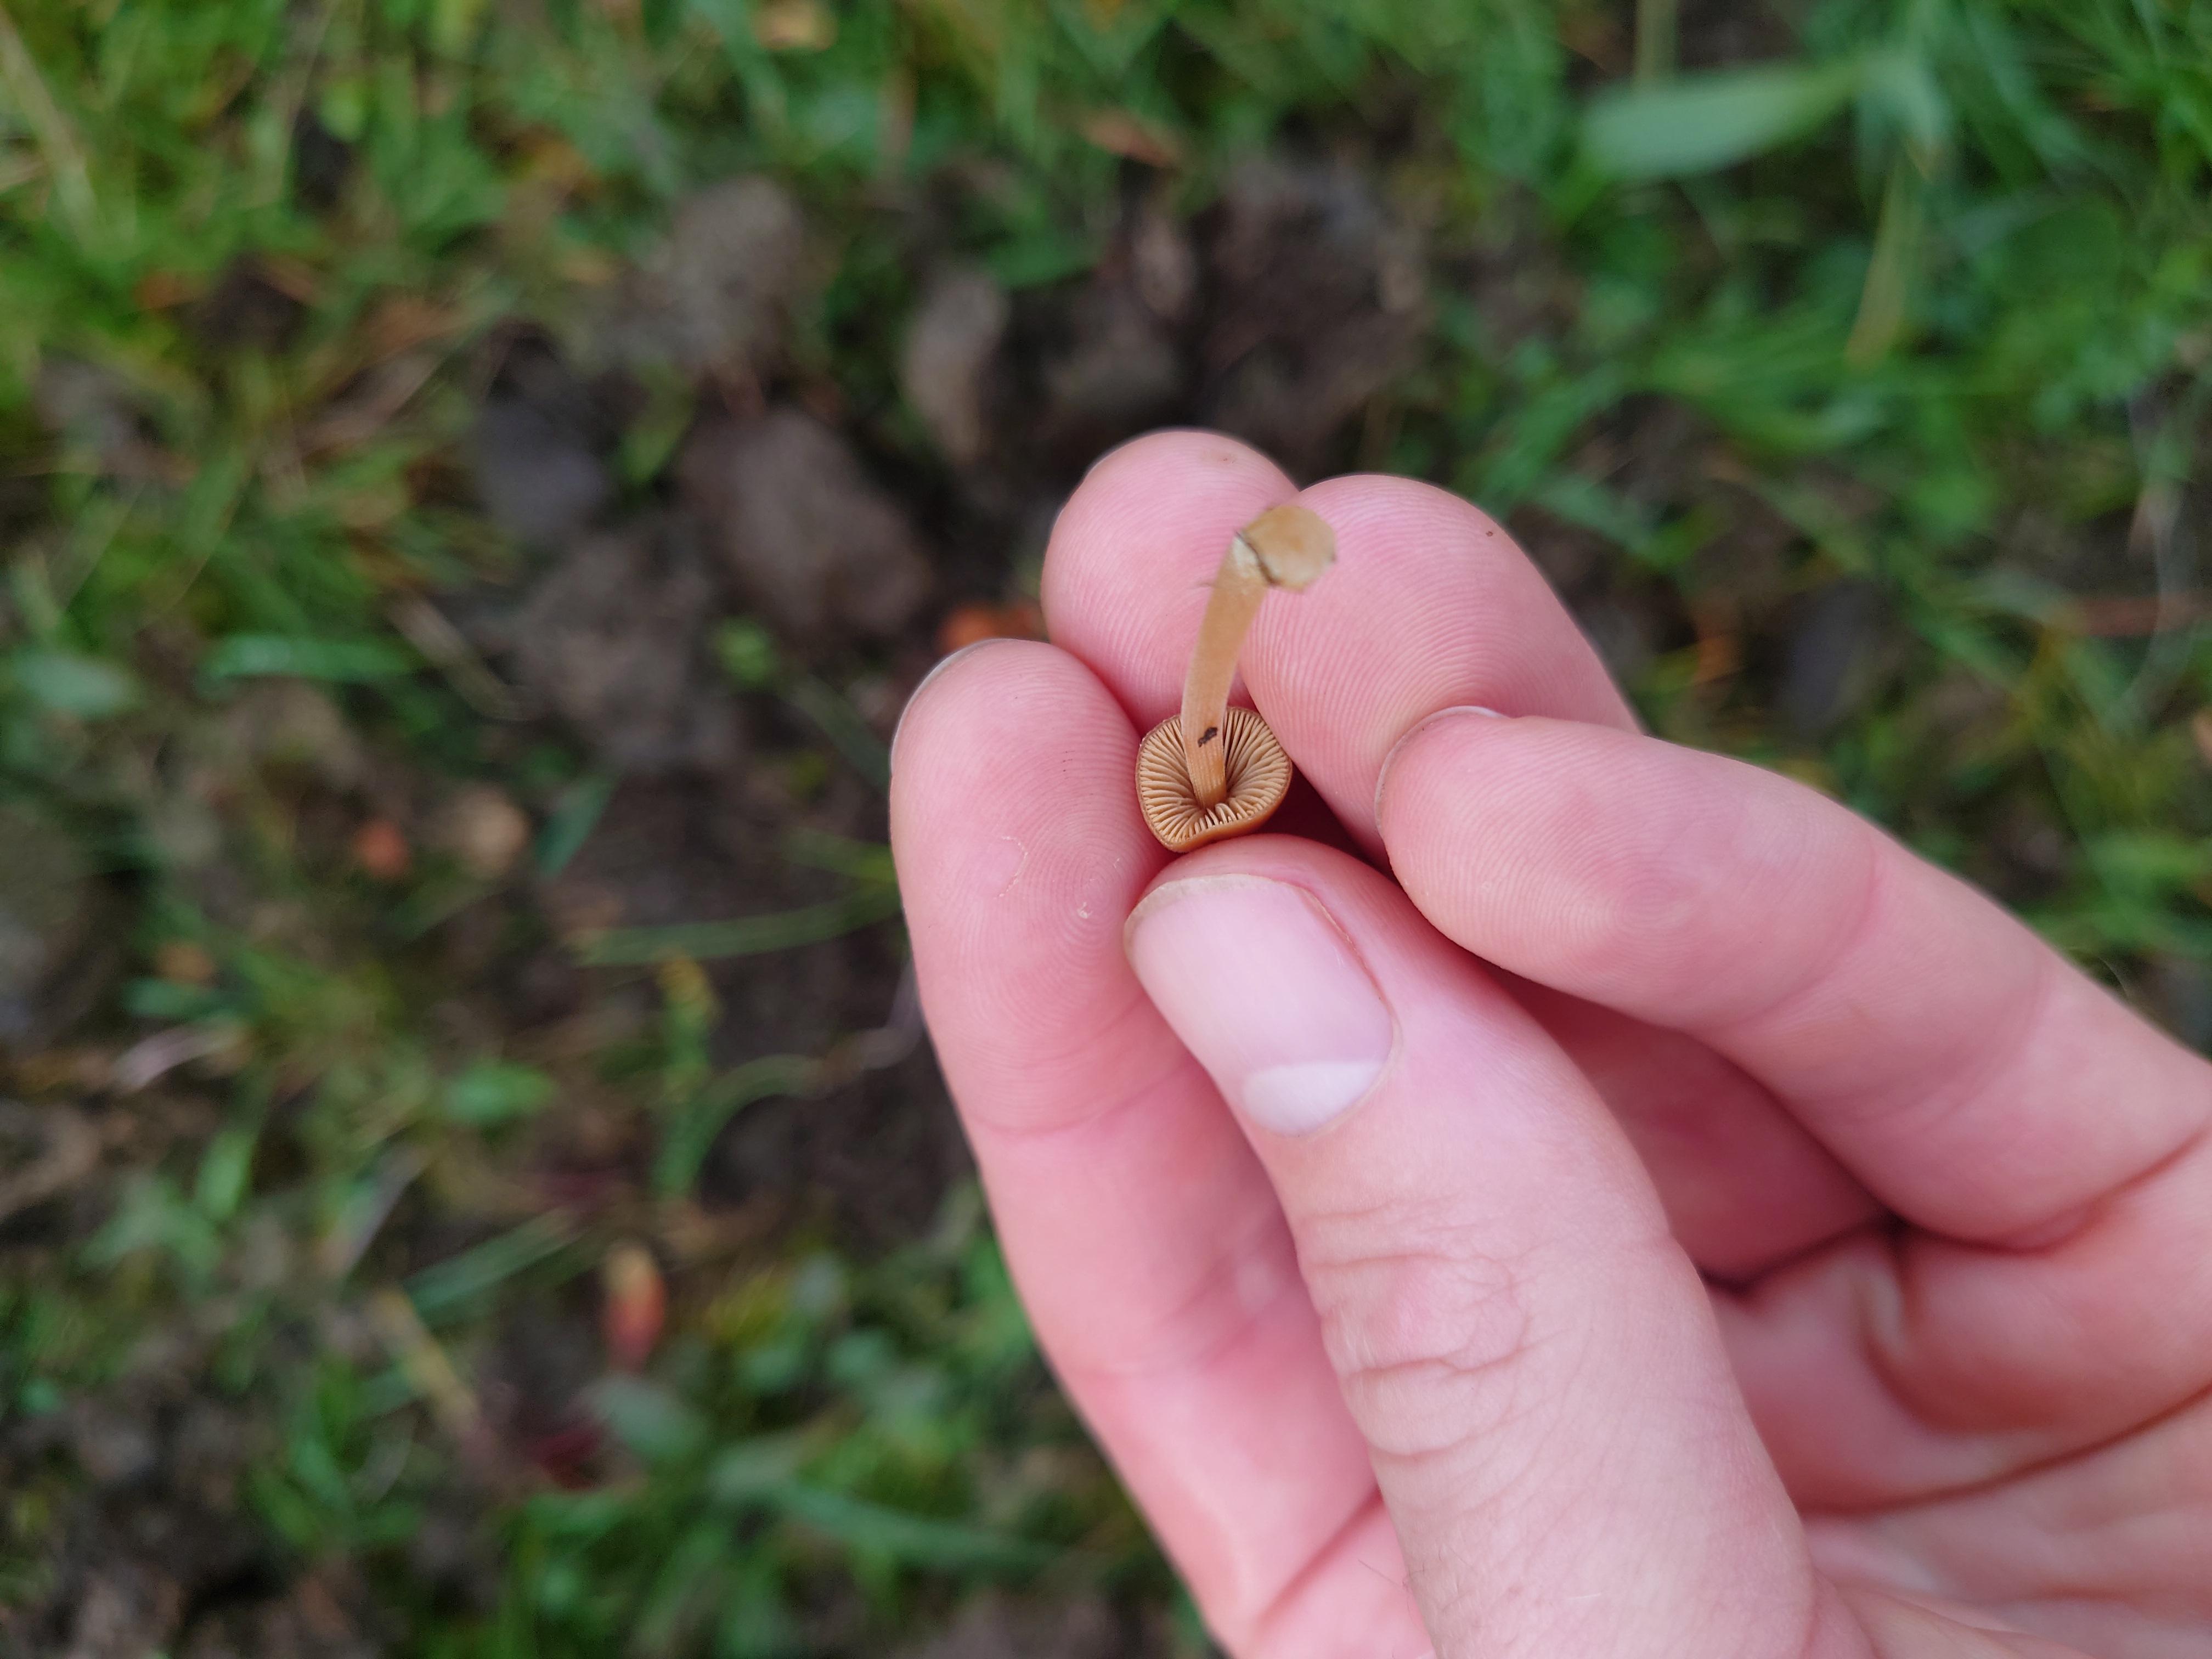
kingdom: Fungi
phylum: Basidiomycota
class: Agaricomycetes
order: Agaricales
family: Bolbitiaceae
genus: Conocybe
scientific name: Conocybe
